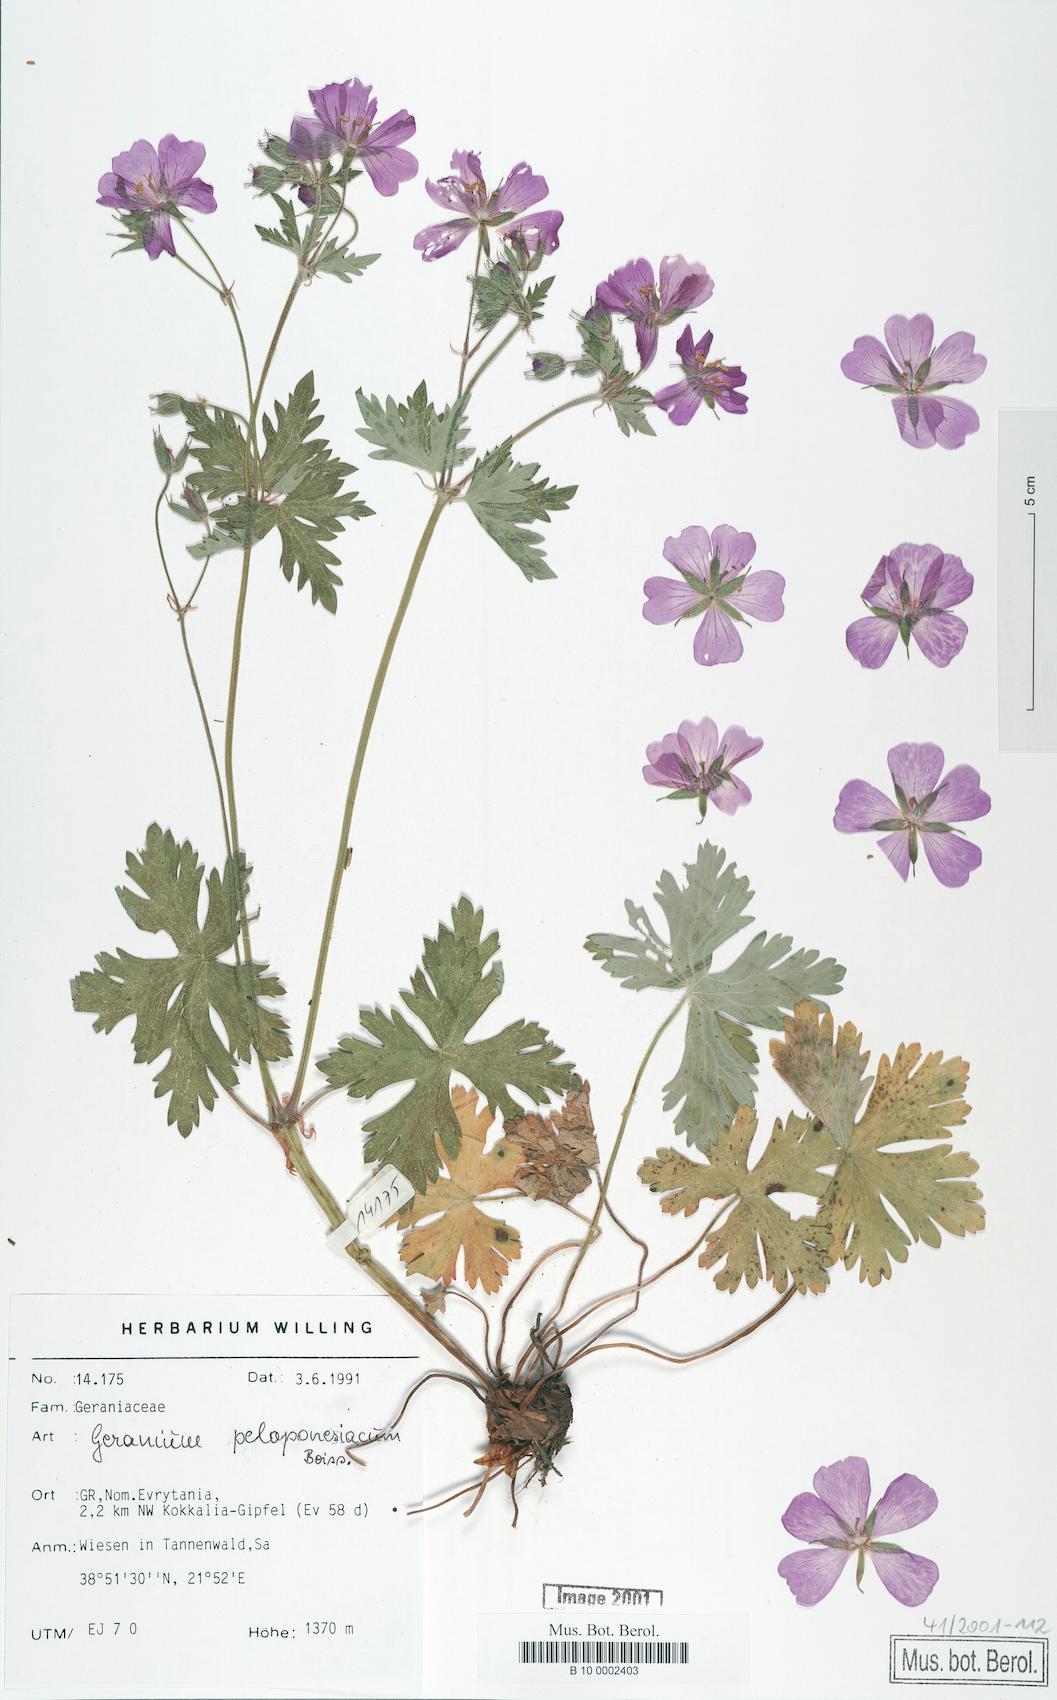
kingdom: Plantae
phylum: Tracheophyta
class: Magnoliopsida
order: Geraniales
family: Geraniaceae
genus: Geranium
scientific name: Geranium peloponnesiacum
